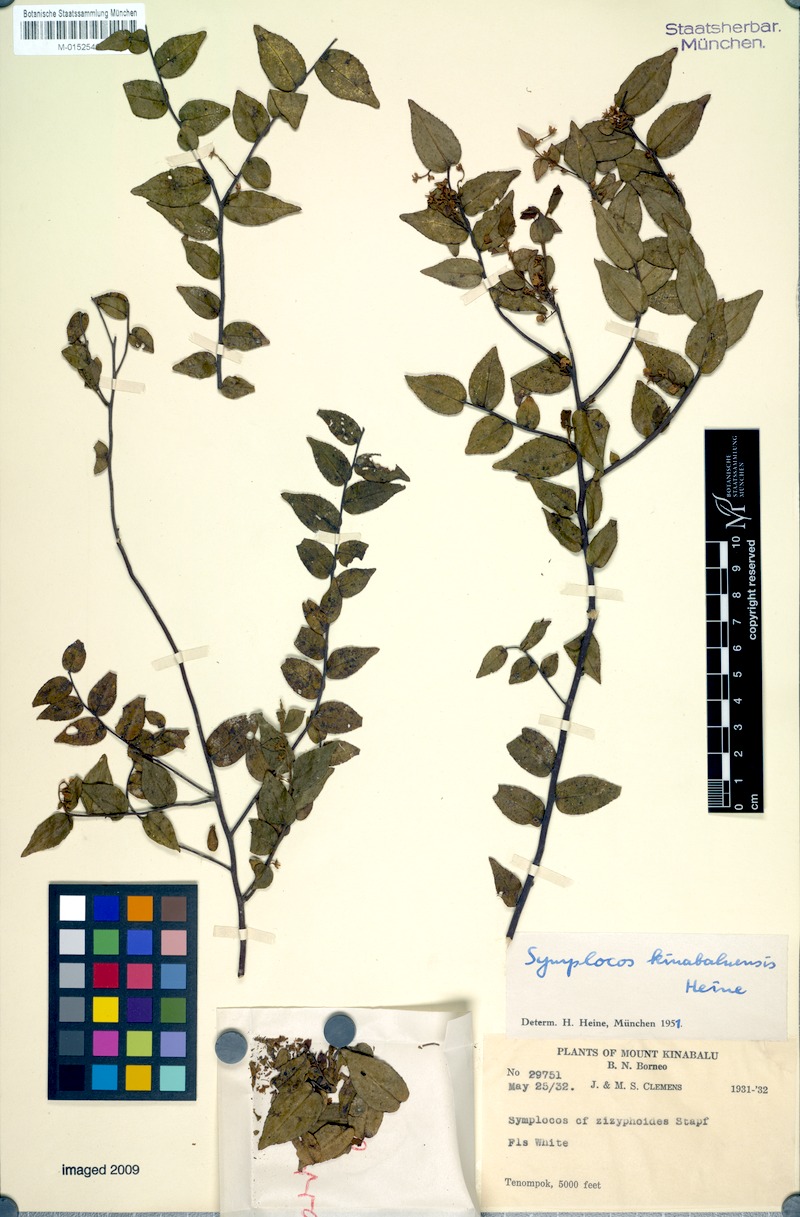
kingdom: Plantae
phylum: Tracheophyta
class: Magnoliopsida
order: Ericales
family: Symplocaceae
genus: Symplocos
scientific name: Symplocos laeteviridis
